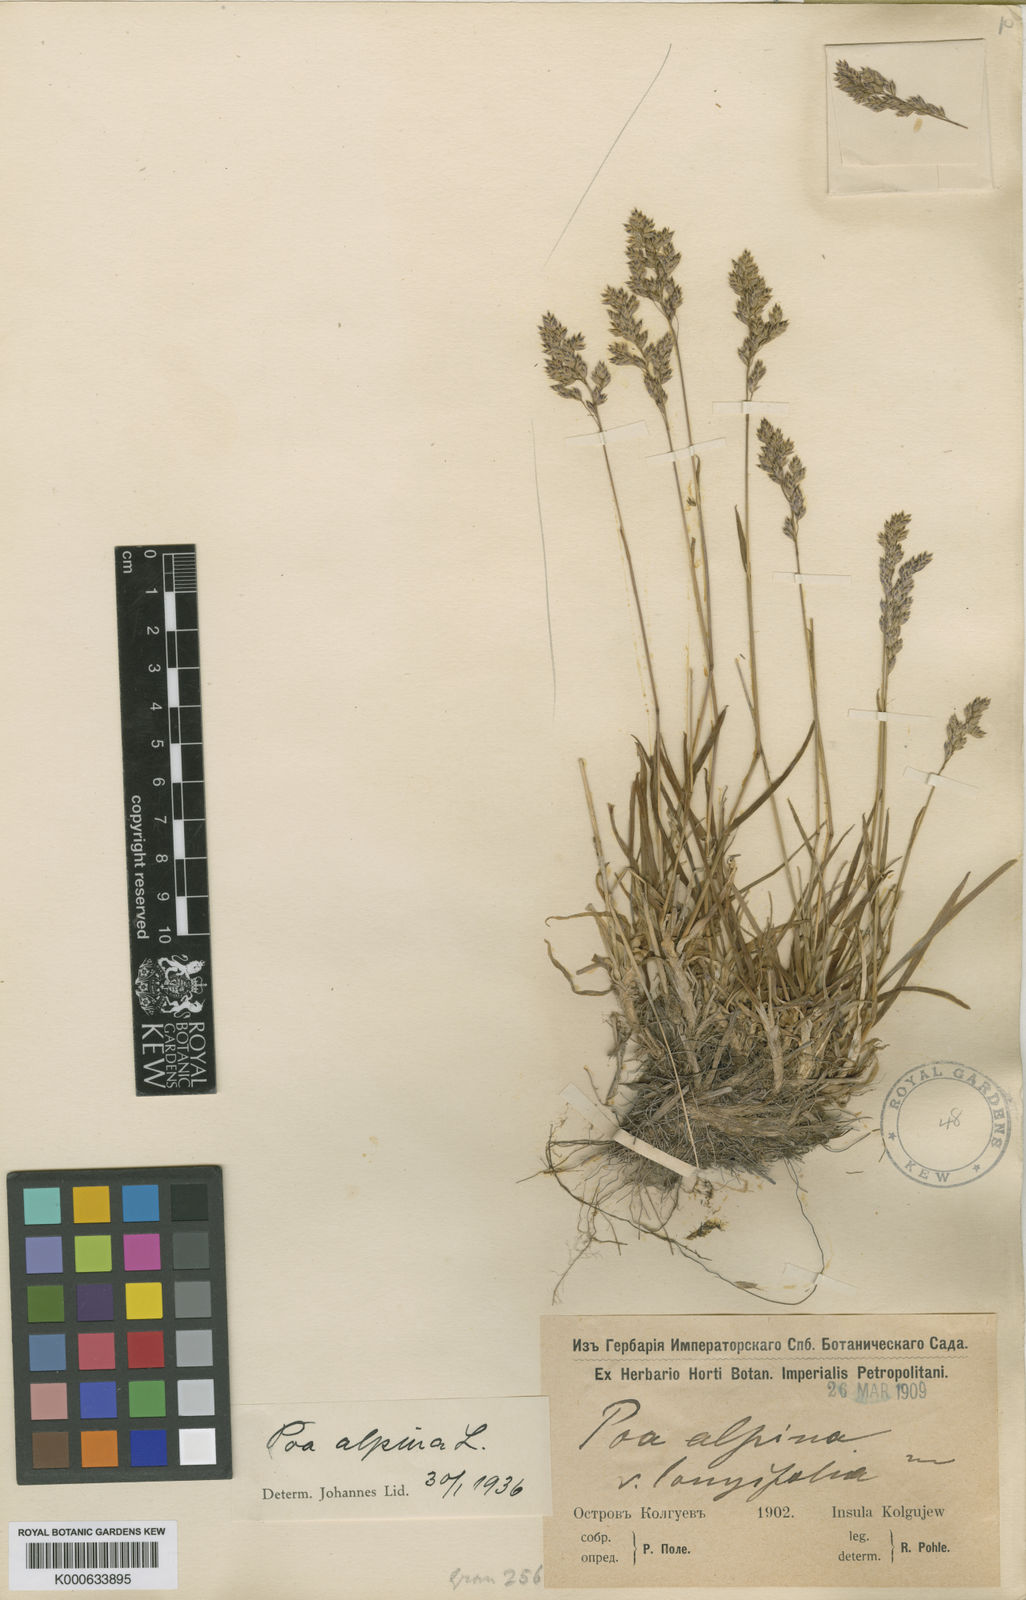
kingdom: Plantae
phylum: Tracheophyta
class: Liliopsida
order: Poales
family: Poaceae
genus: Poa
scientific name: Poa alpina
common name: Alpine bluegrass
